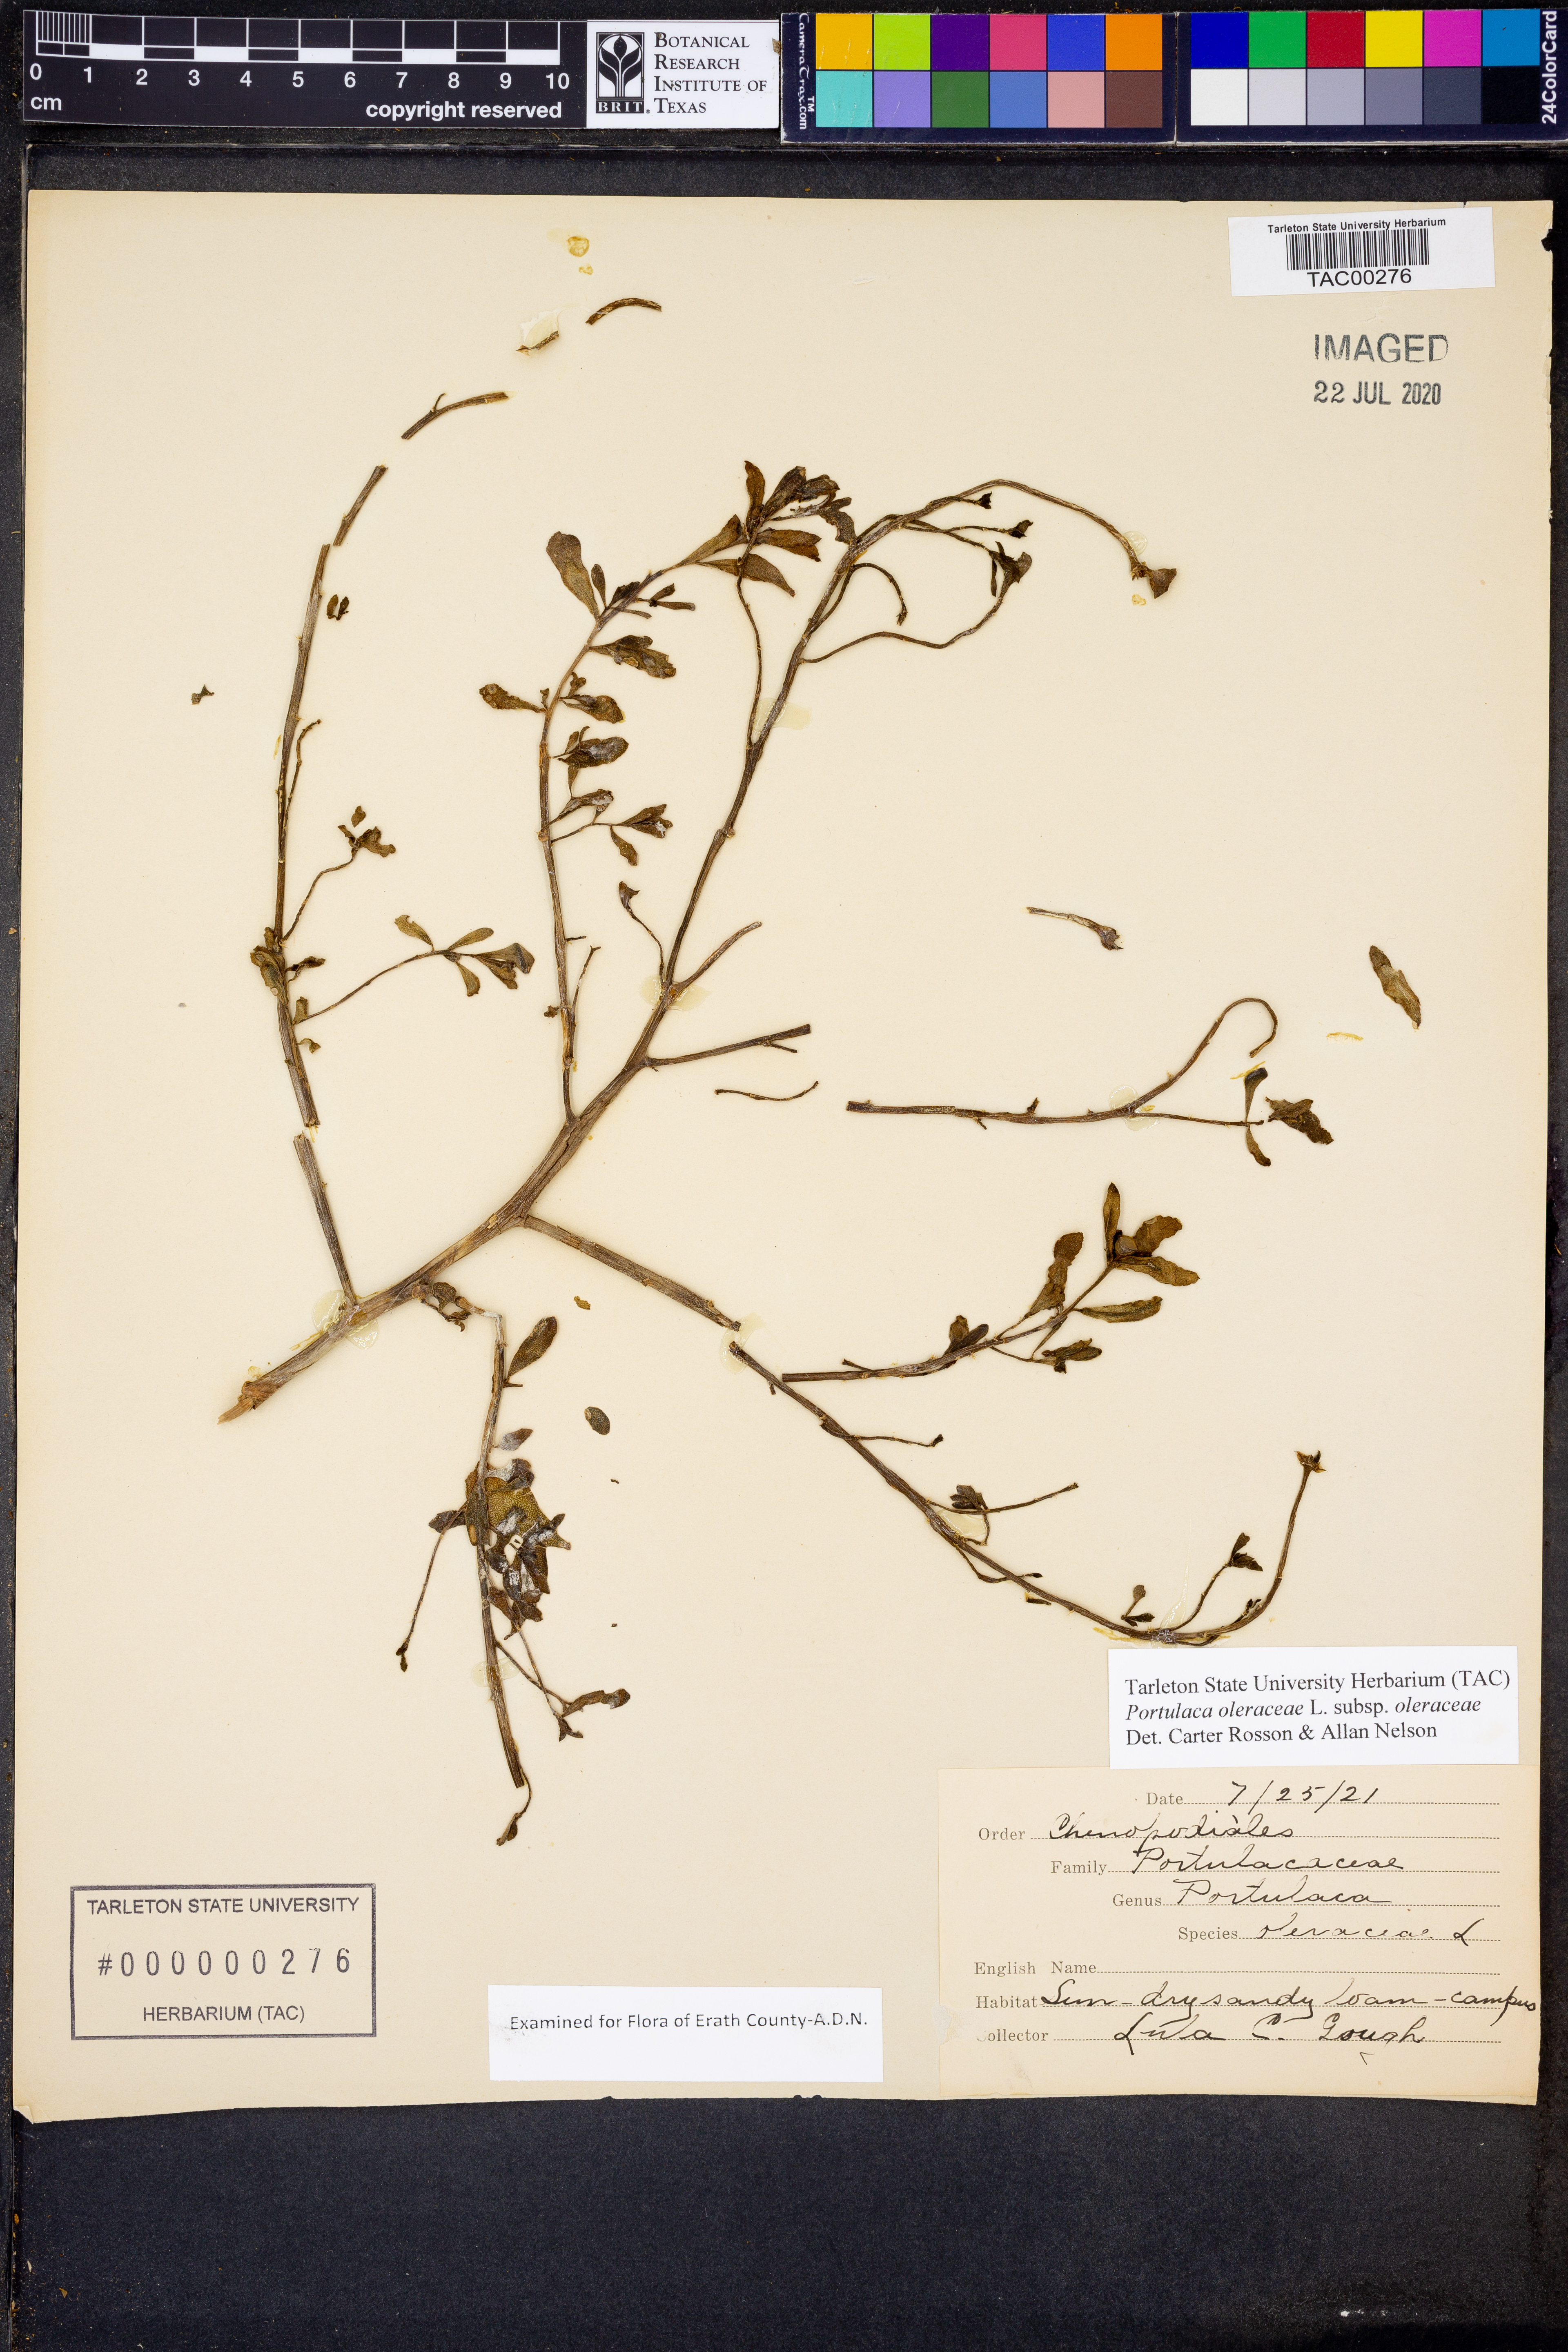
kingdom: Plantae
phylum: Tracheophyta
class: Magnoliopsida
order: Caryophyllales
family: Portulacaceae
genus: Portulaca
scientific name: Portulaca oleracea
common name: Common purslane
